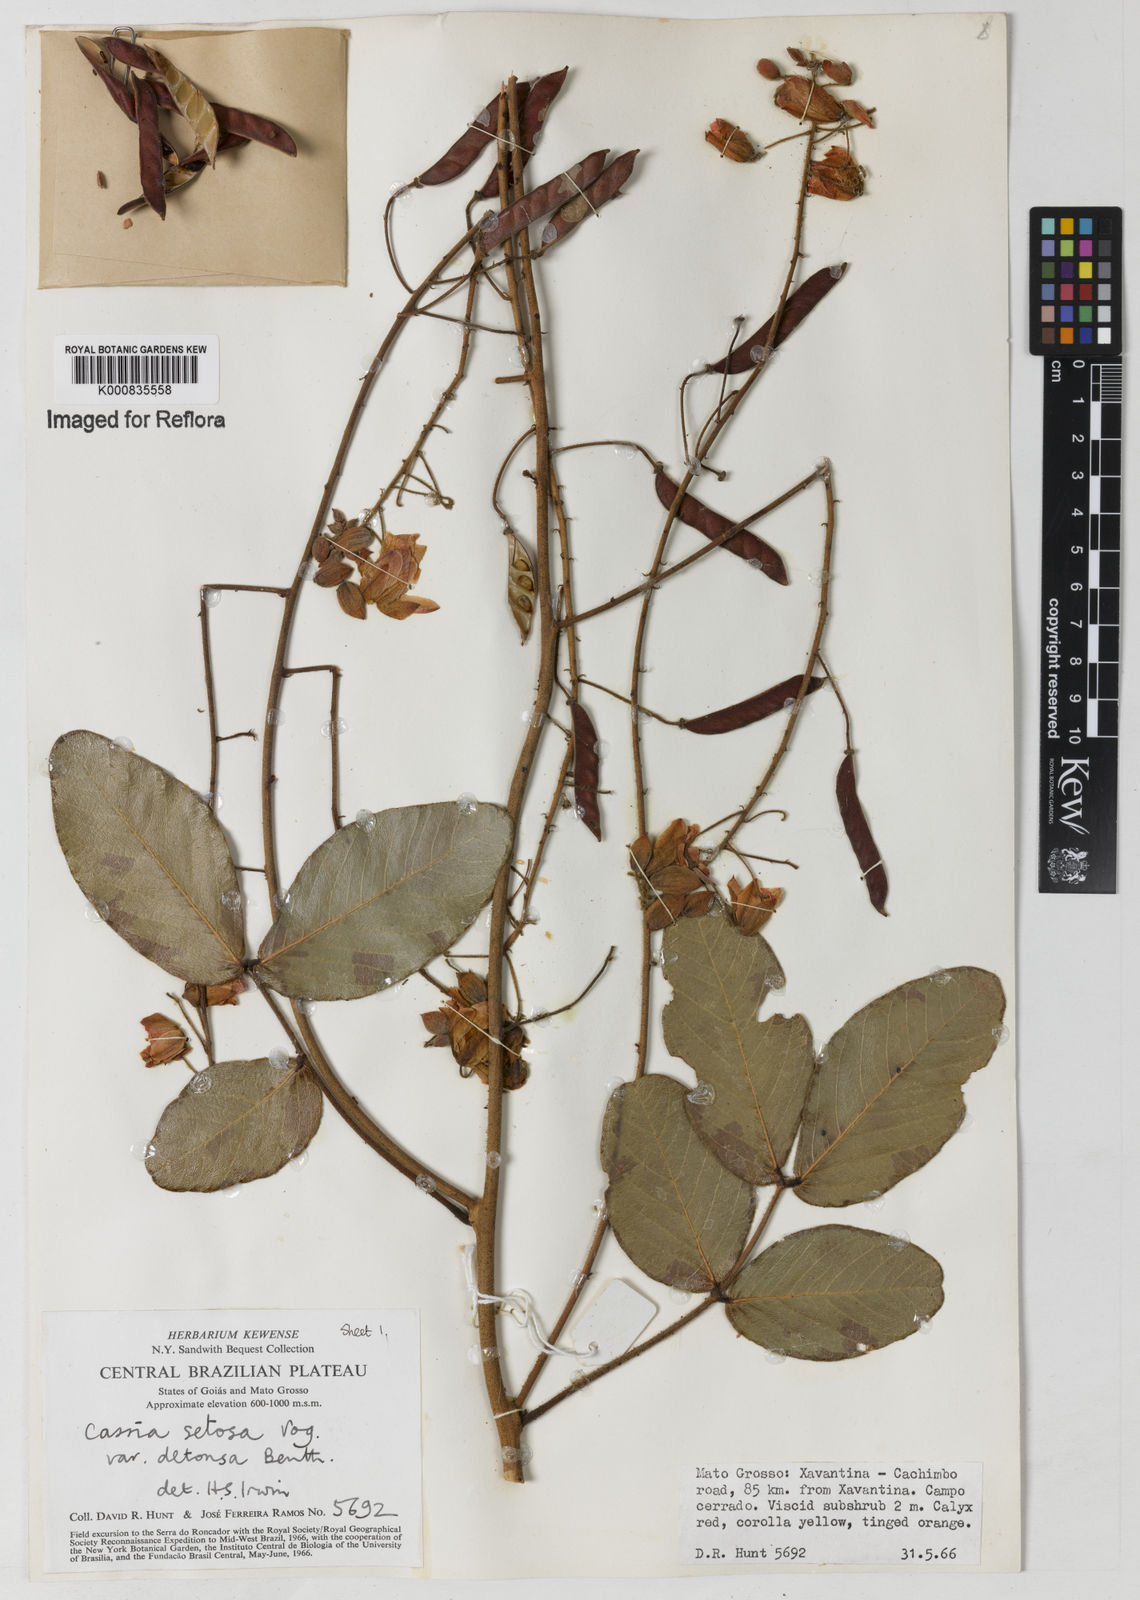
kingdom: Plantae
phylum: Tracheophyta
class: Magnoliopsida
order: Fabales
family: Fabaceae
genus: Chamaecrista
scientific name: Chamaecrista setosa
